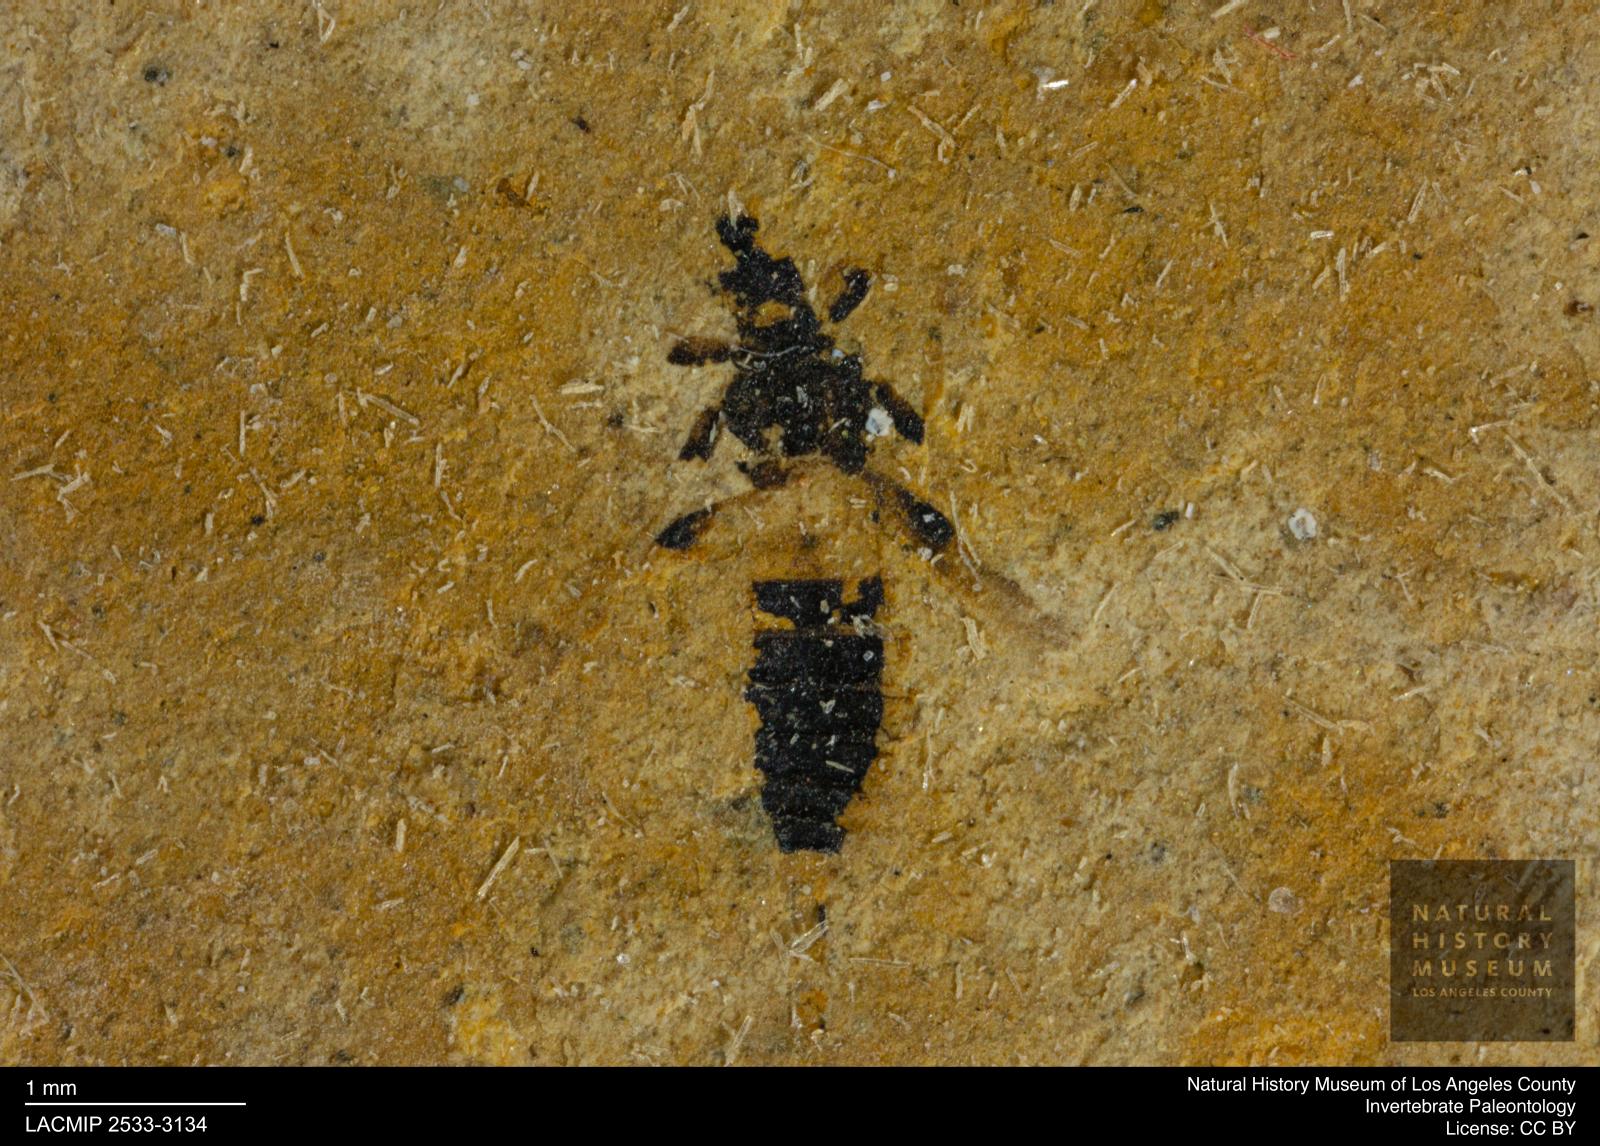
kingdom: Animalia
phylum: Arthropoda
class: Insecta
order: Thysanoptera
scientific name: Thysanoptera
